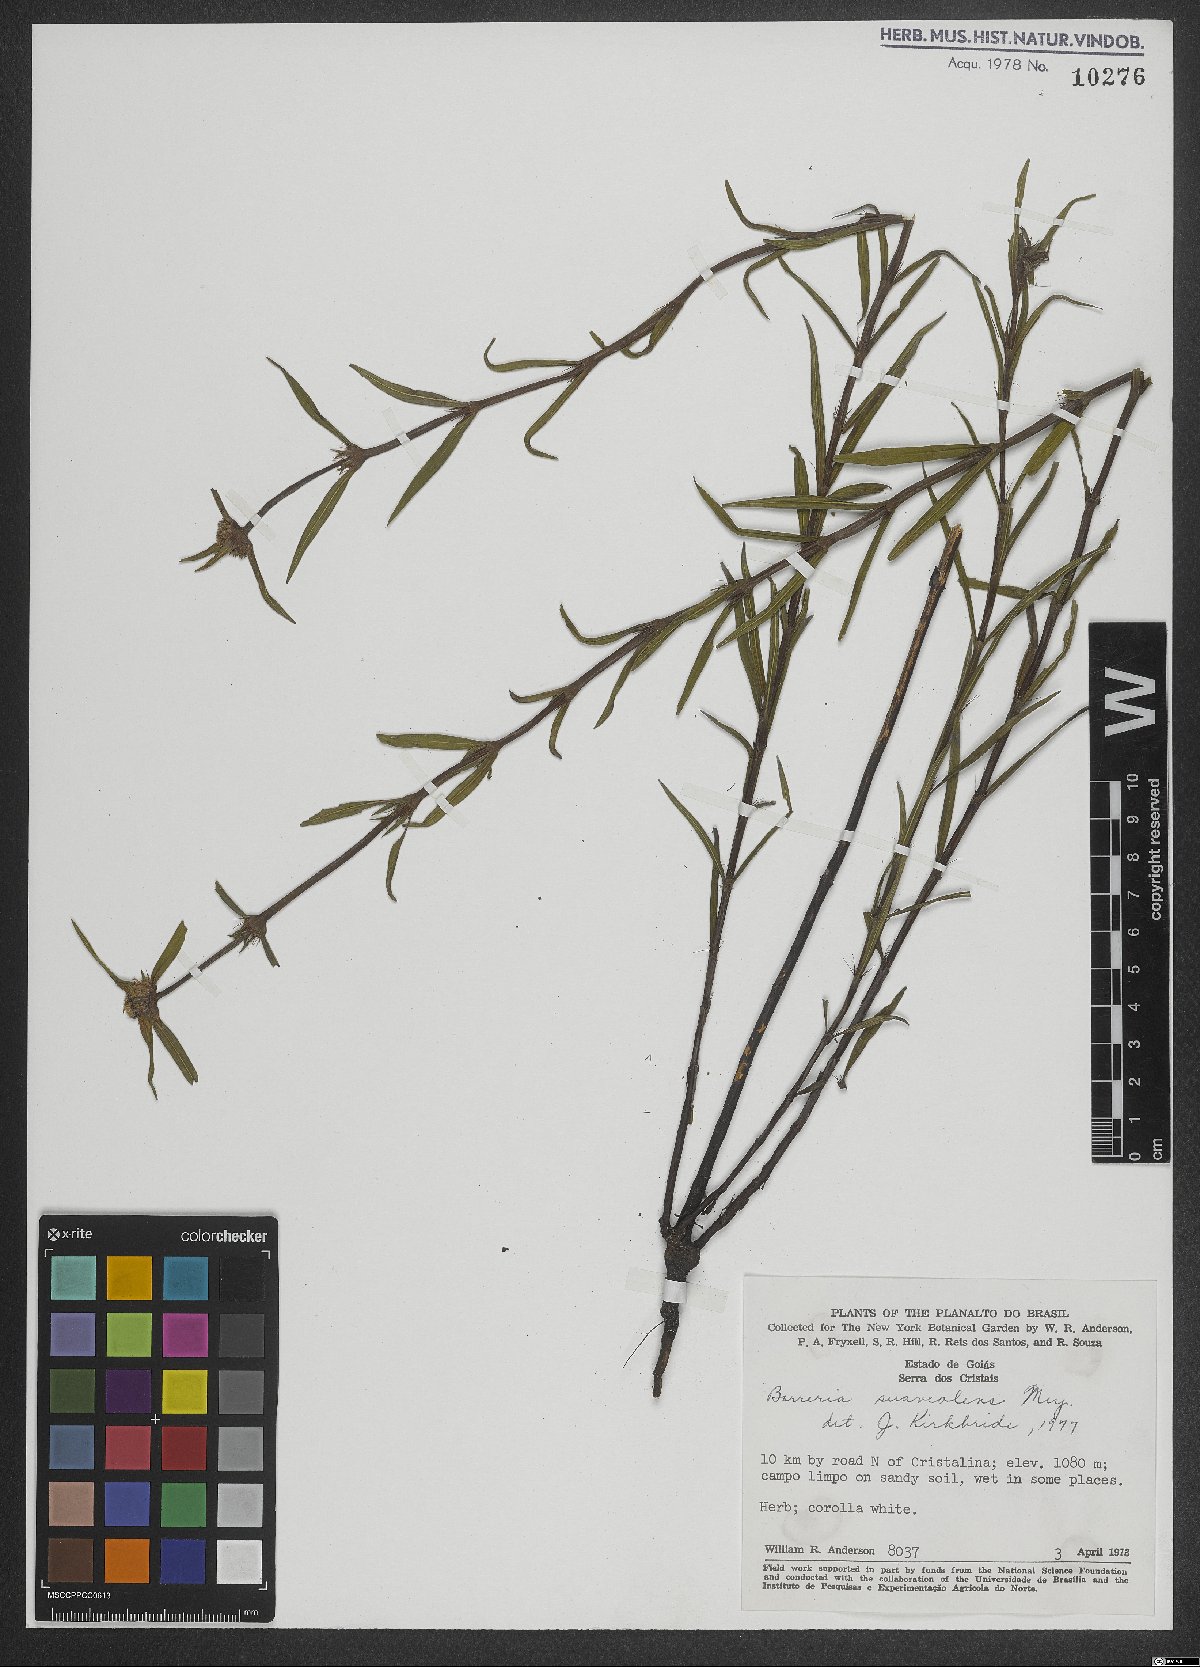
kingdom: Plantae
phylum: Tracheophyta
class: Magnoliopsida
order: Gentianales
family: Rubiaceae
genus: Spermacoce
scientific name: Spermacoce suaveolens
